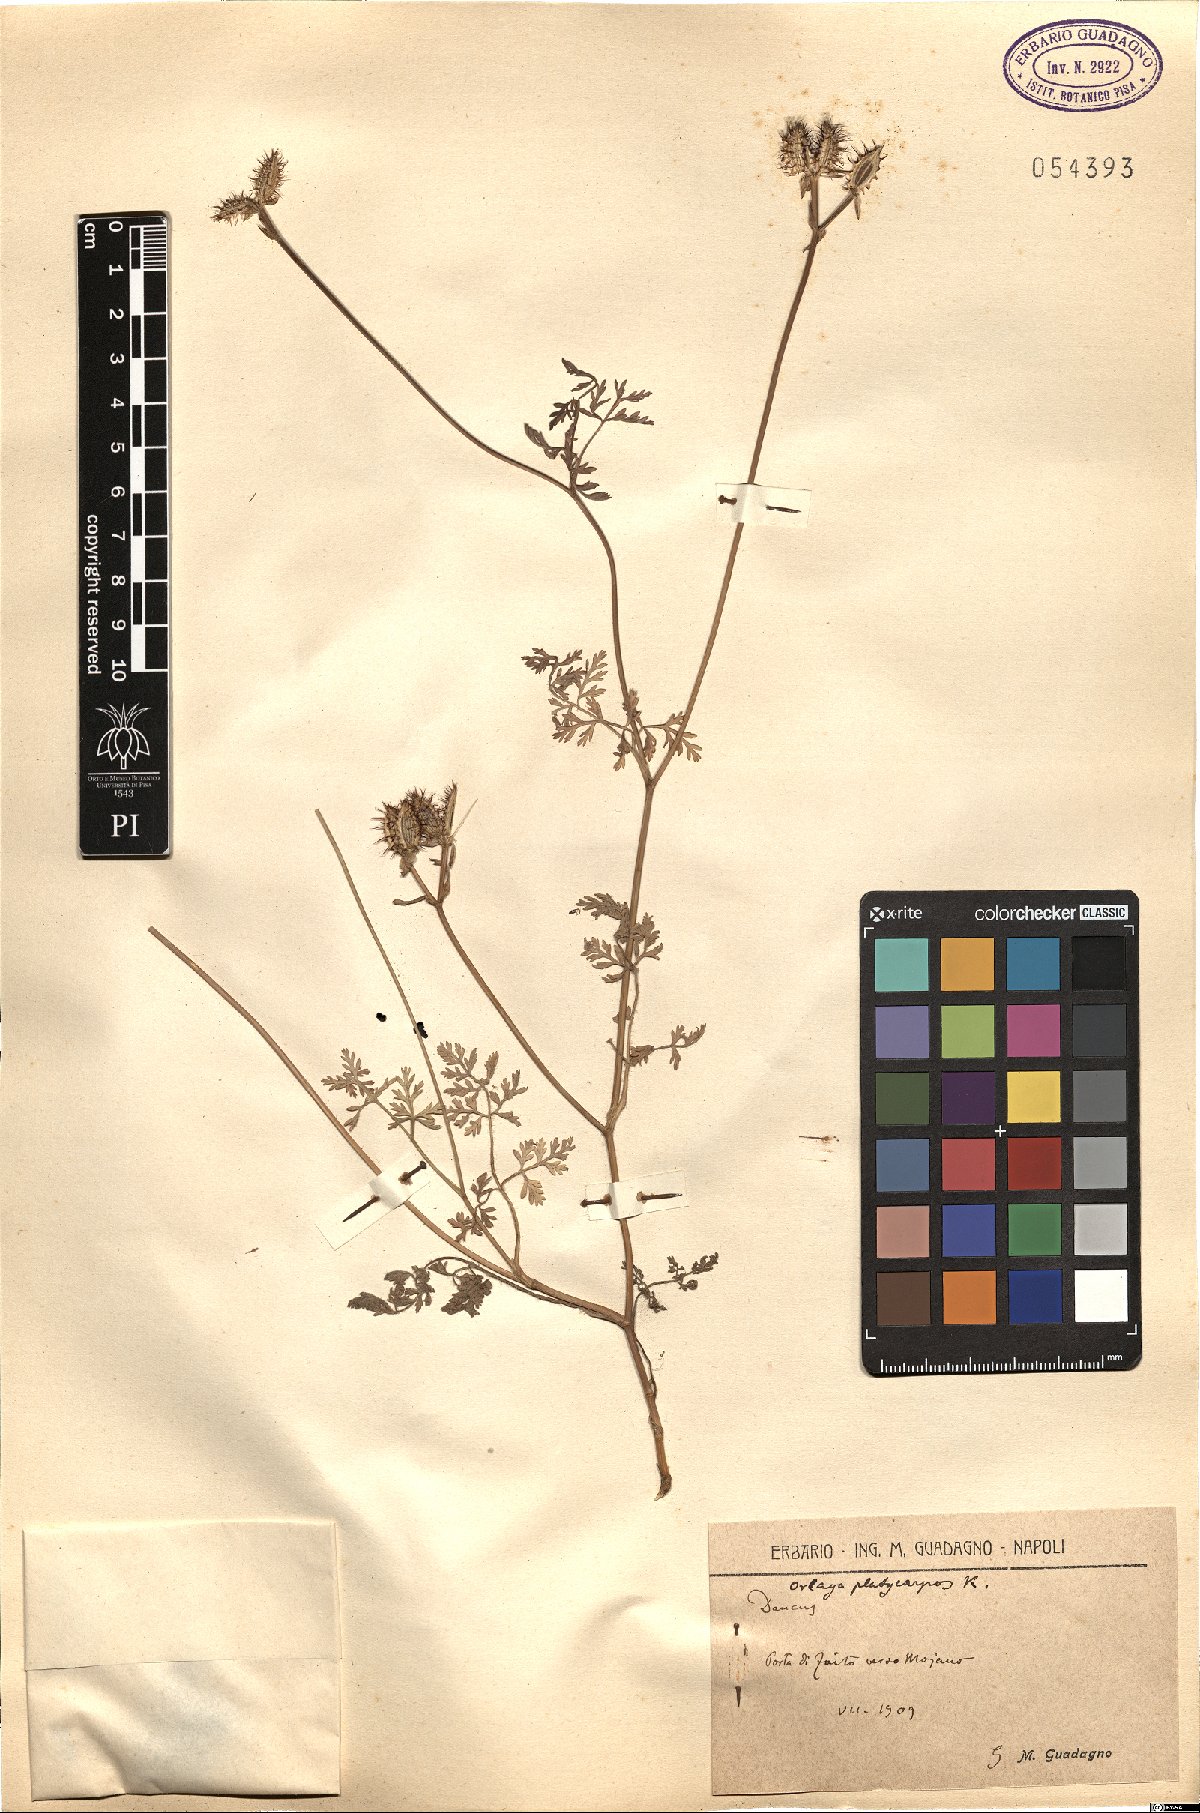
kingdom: Plantae
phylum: Tracheophyta
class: Magnoliopsida
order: Apiales
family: Apiaceae
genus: Orlaya
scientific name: Orlaya daucoides
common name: Flat-fruit orlaya
